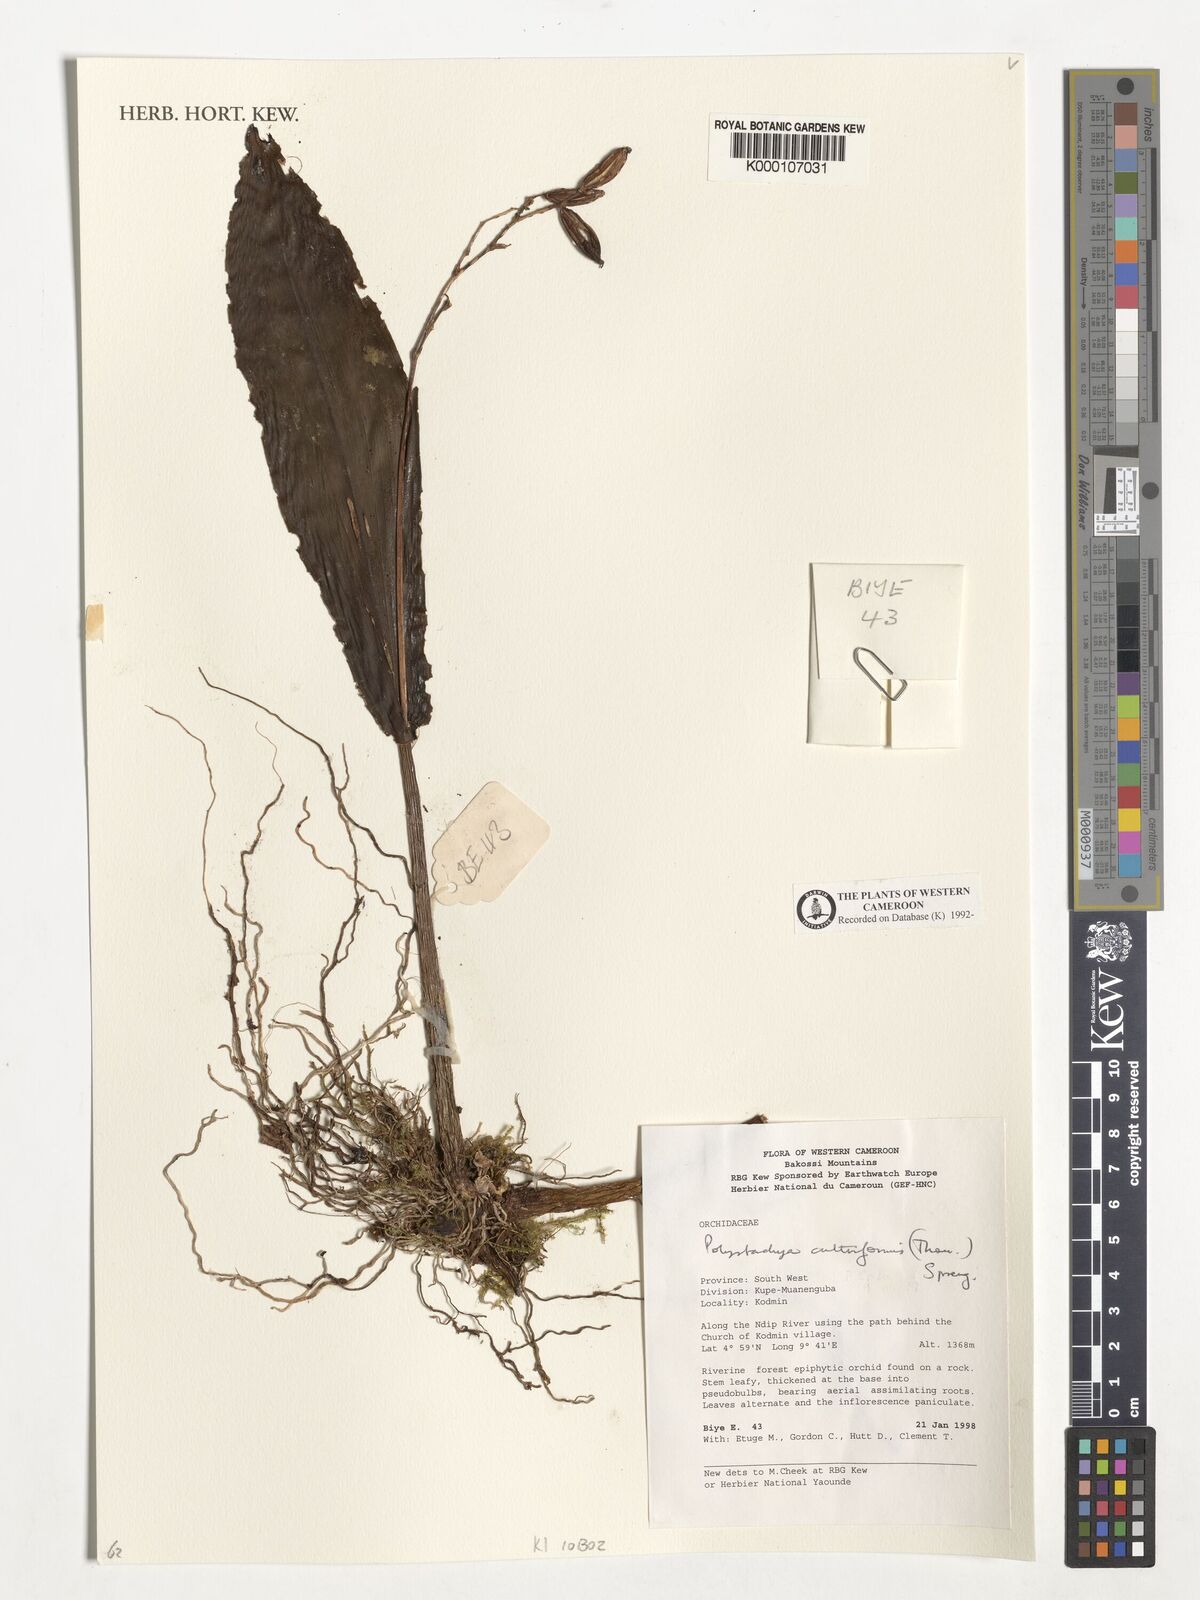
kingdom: Plantae
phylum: Tracheophyta
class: Liliopsida
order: Asparagales
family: Orchidaceae
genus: Polystachya
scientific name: Polystachya cultriformis
